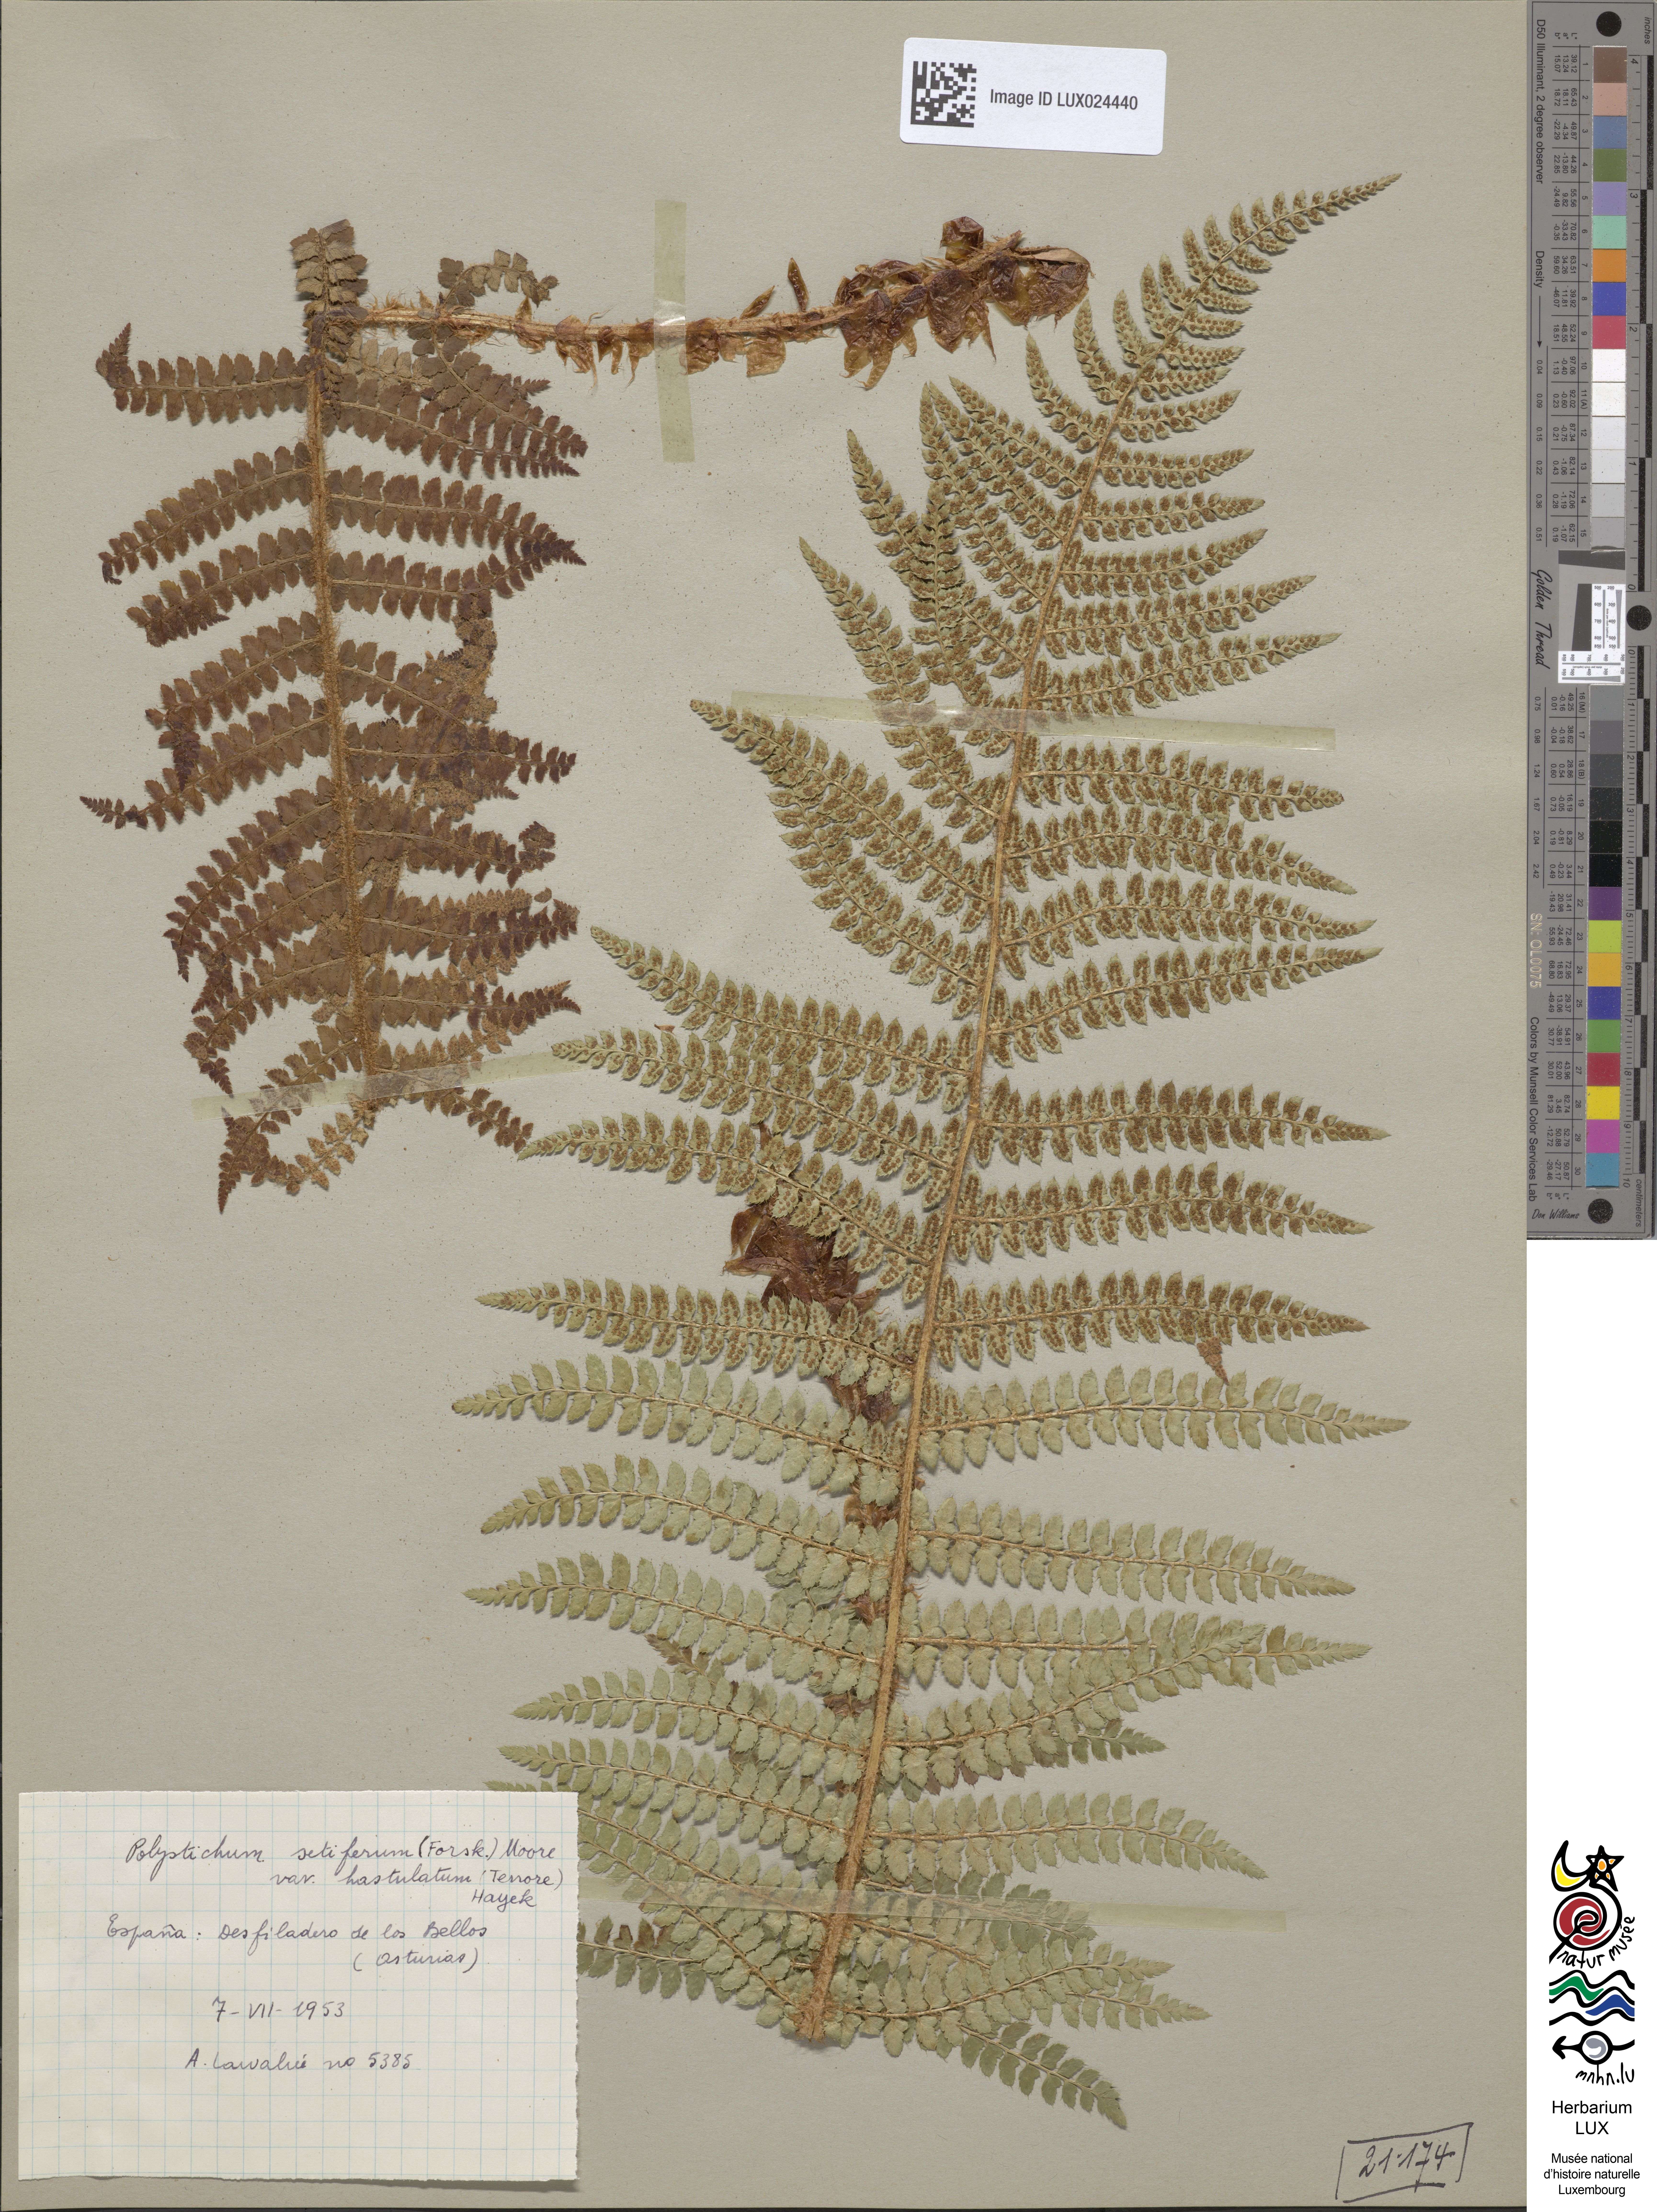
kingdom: Plantae
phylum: Tracheophyta
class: Polypodiopsida
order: Polypodiales
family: Dryopteridaceae
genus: Polystichum
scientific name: Polystichum setiferum
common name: Soft shield-fern
